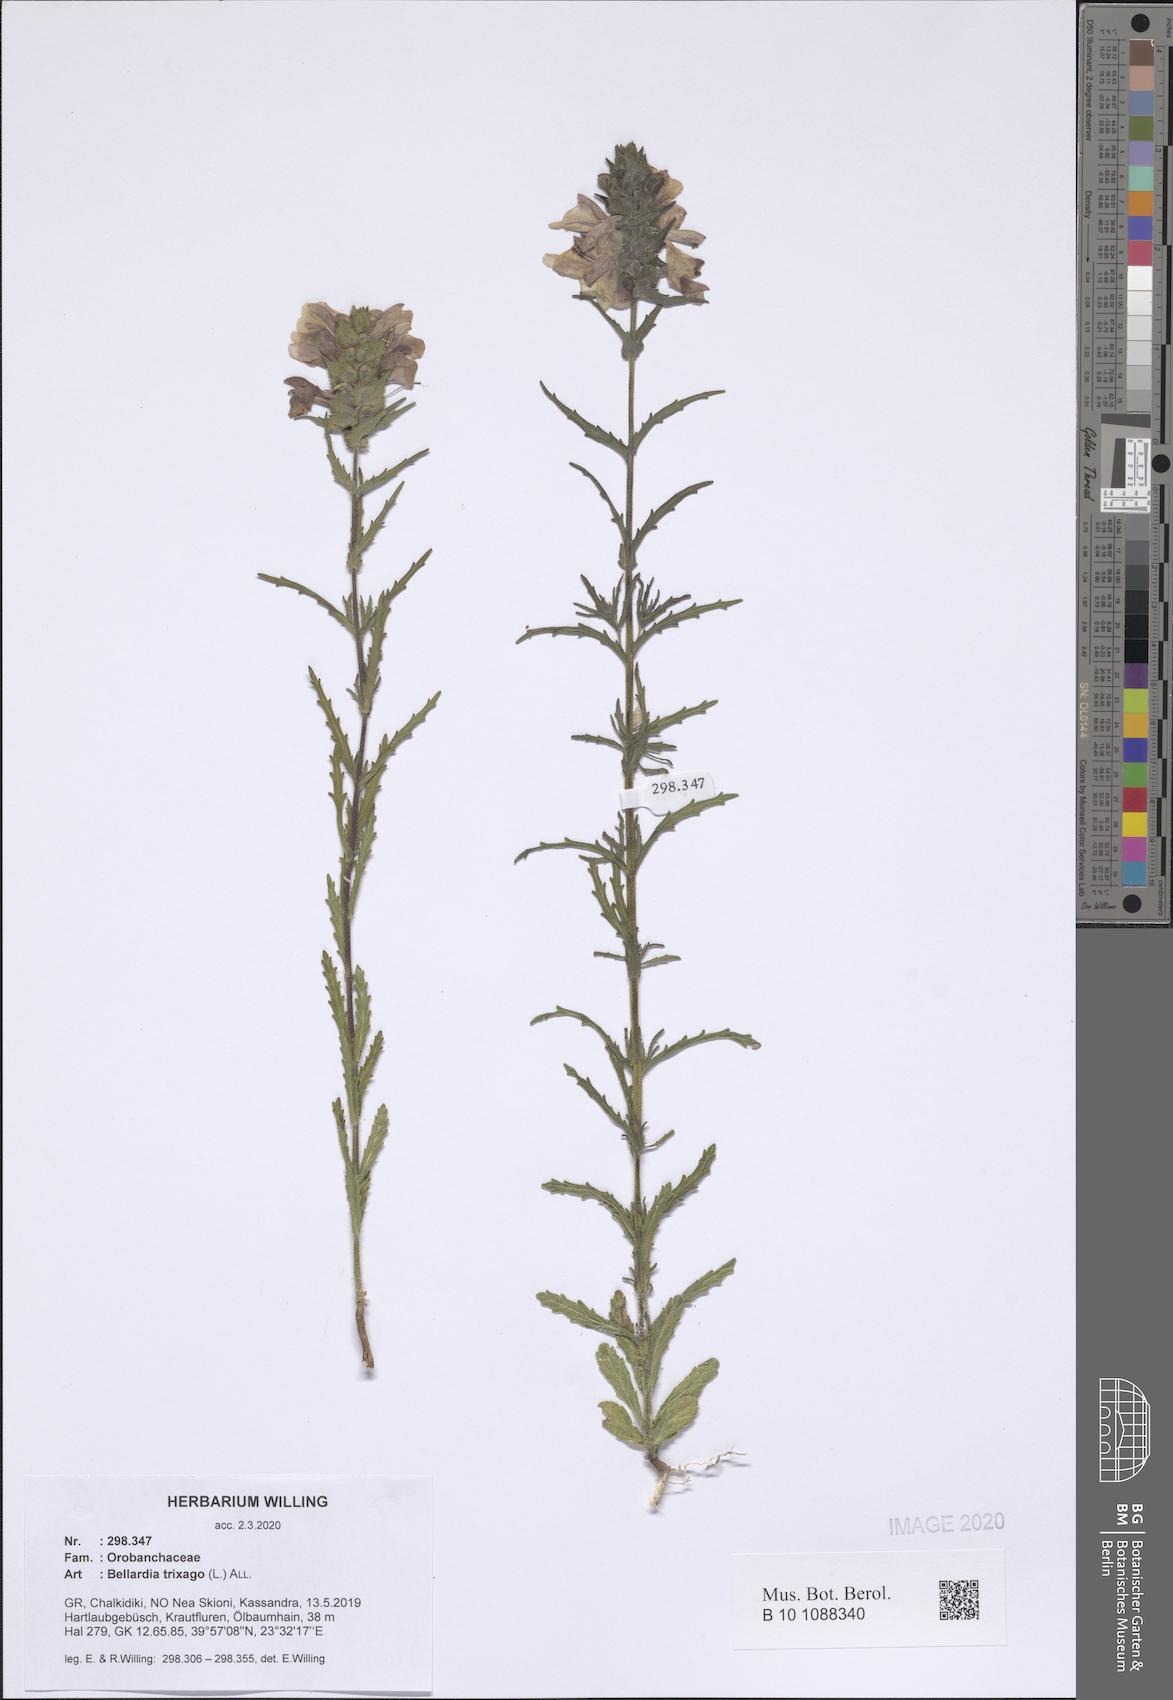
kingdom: Plantae
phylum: Tracheophyta
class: Magnoliopsida
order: Lamiales
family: Orobanchaceae
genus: Bellardia
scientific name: Bellardia trixago
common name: Mediterranean lineseed
